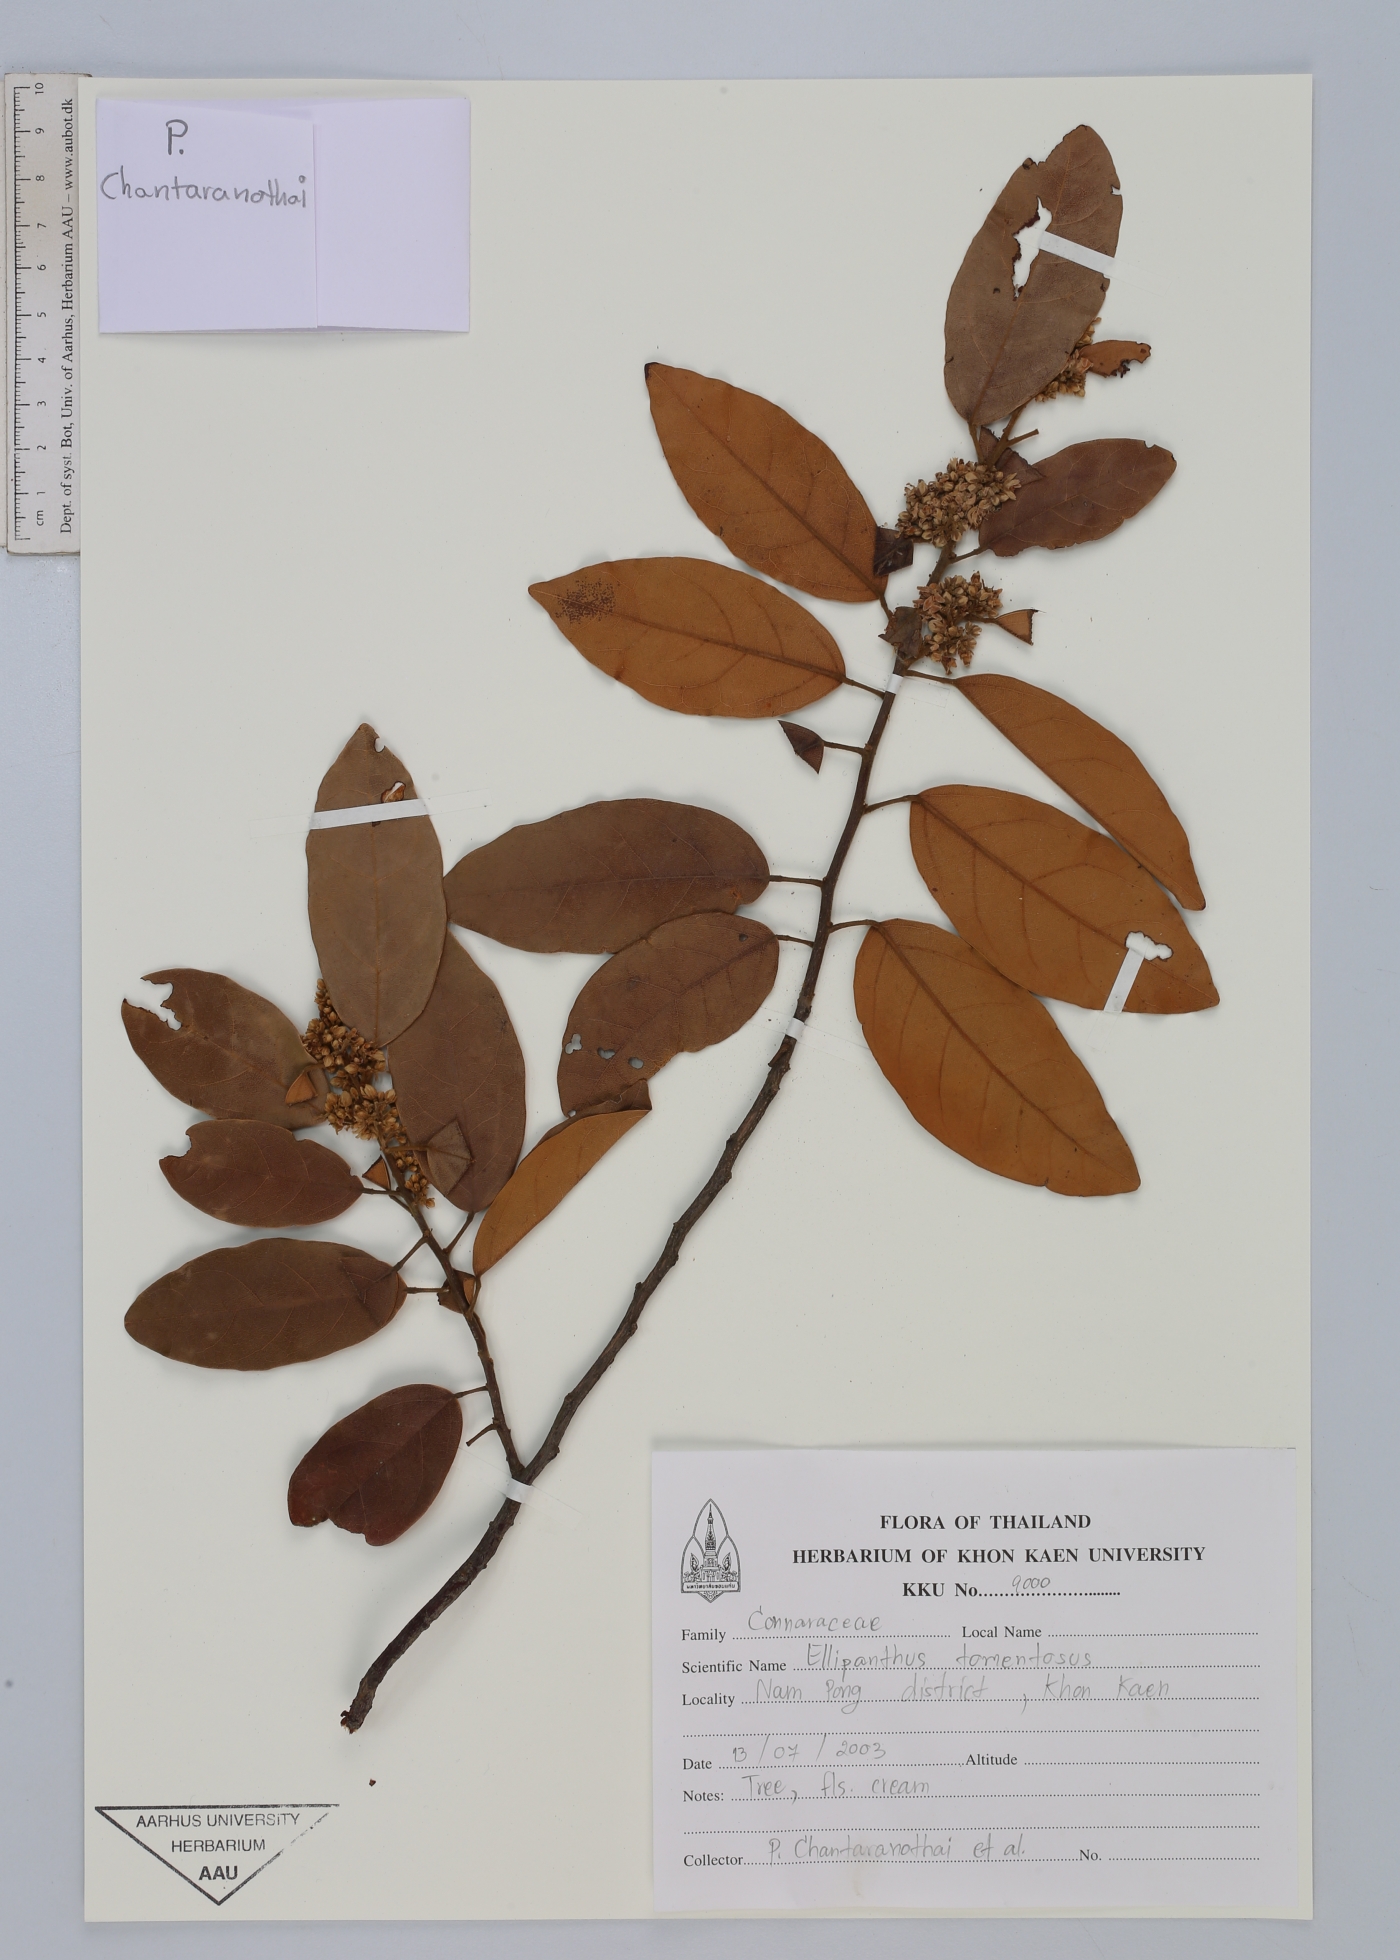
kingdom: Plantae
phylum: Tracheophyta
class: Magnoliopsida
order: Oxalidales
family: Connaraceae
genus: Ellipanthus
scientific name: Ellipanthus tomentosus
